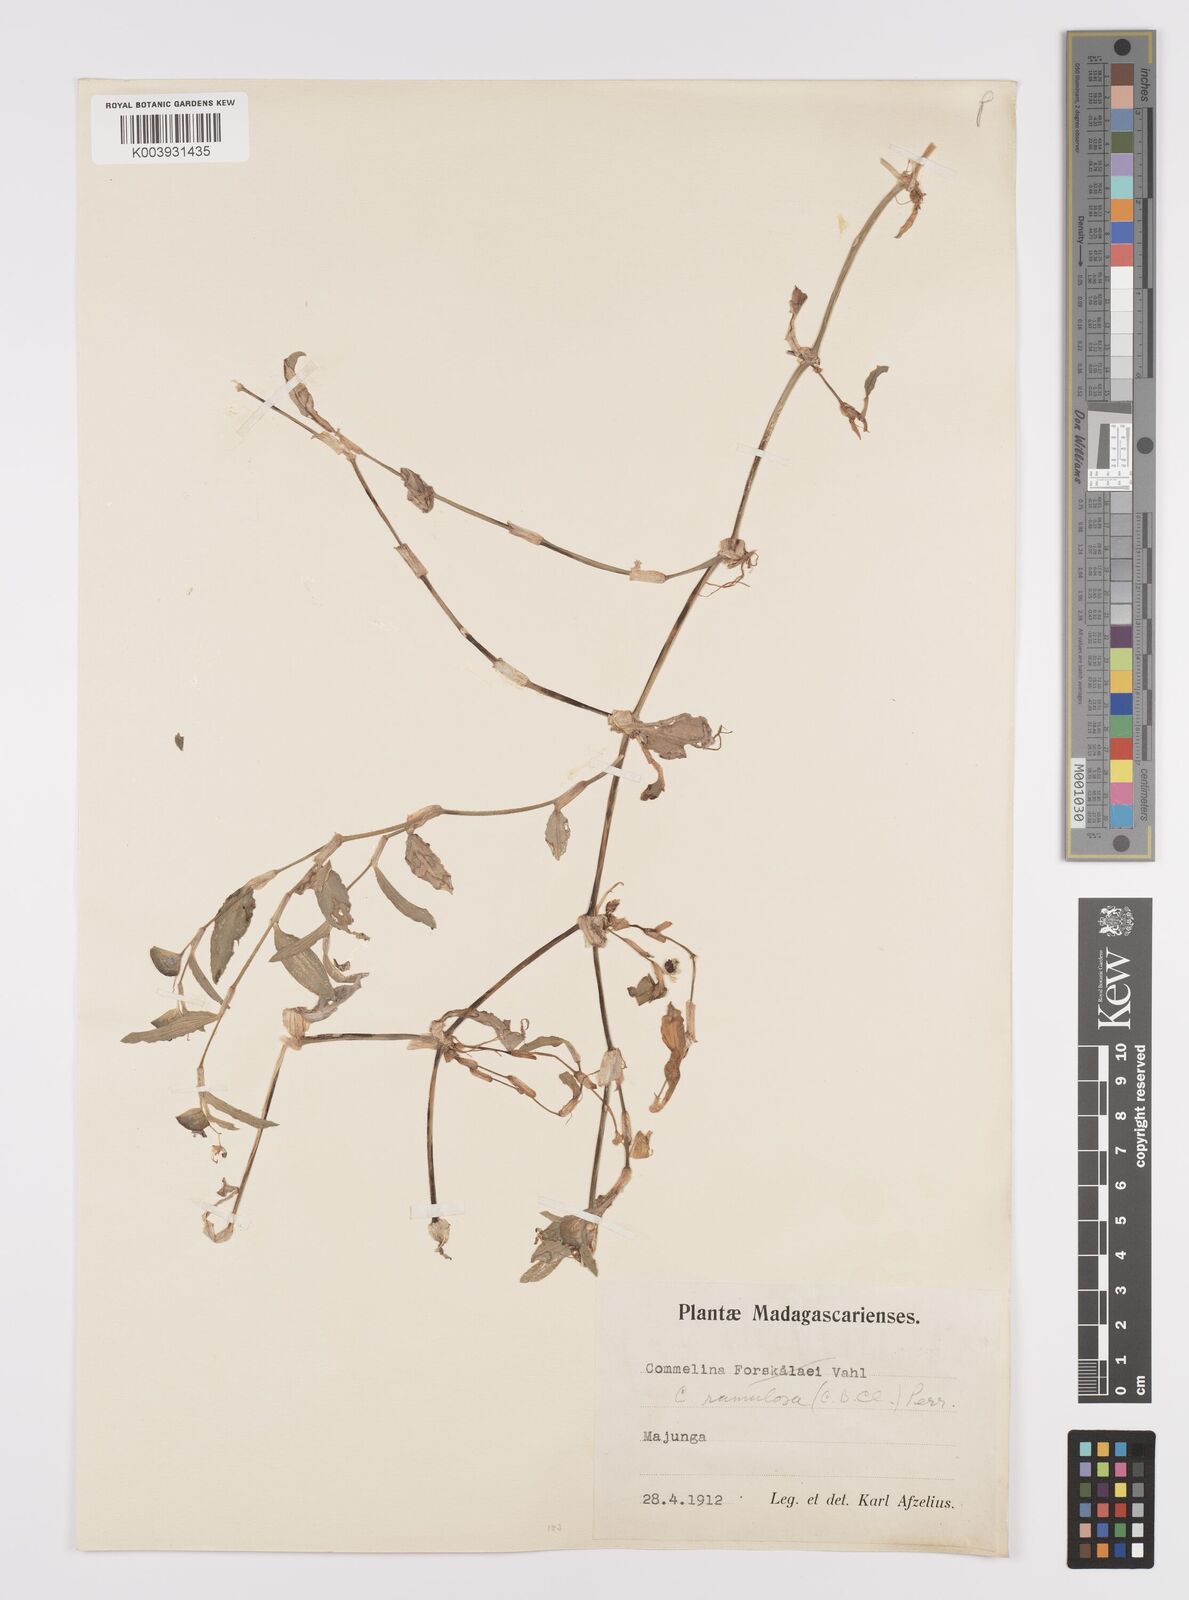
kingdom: Plantae
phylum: Tracheophyta
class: Liliopsida
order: Commelinales
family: Commelinaceae
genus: Commelina
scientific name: Commelina ramulosa
